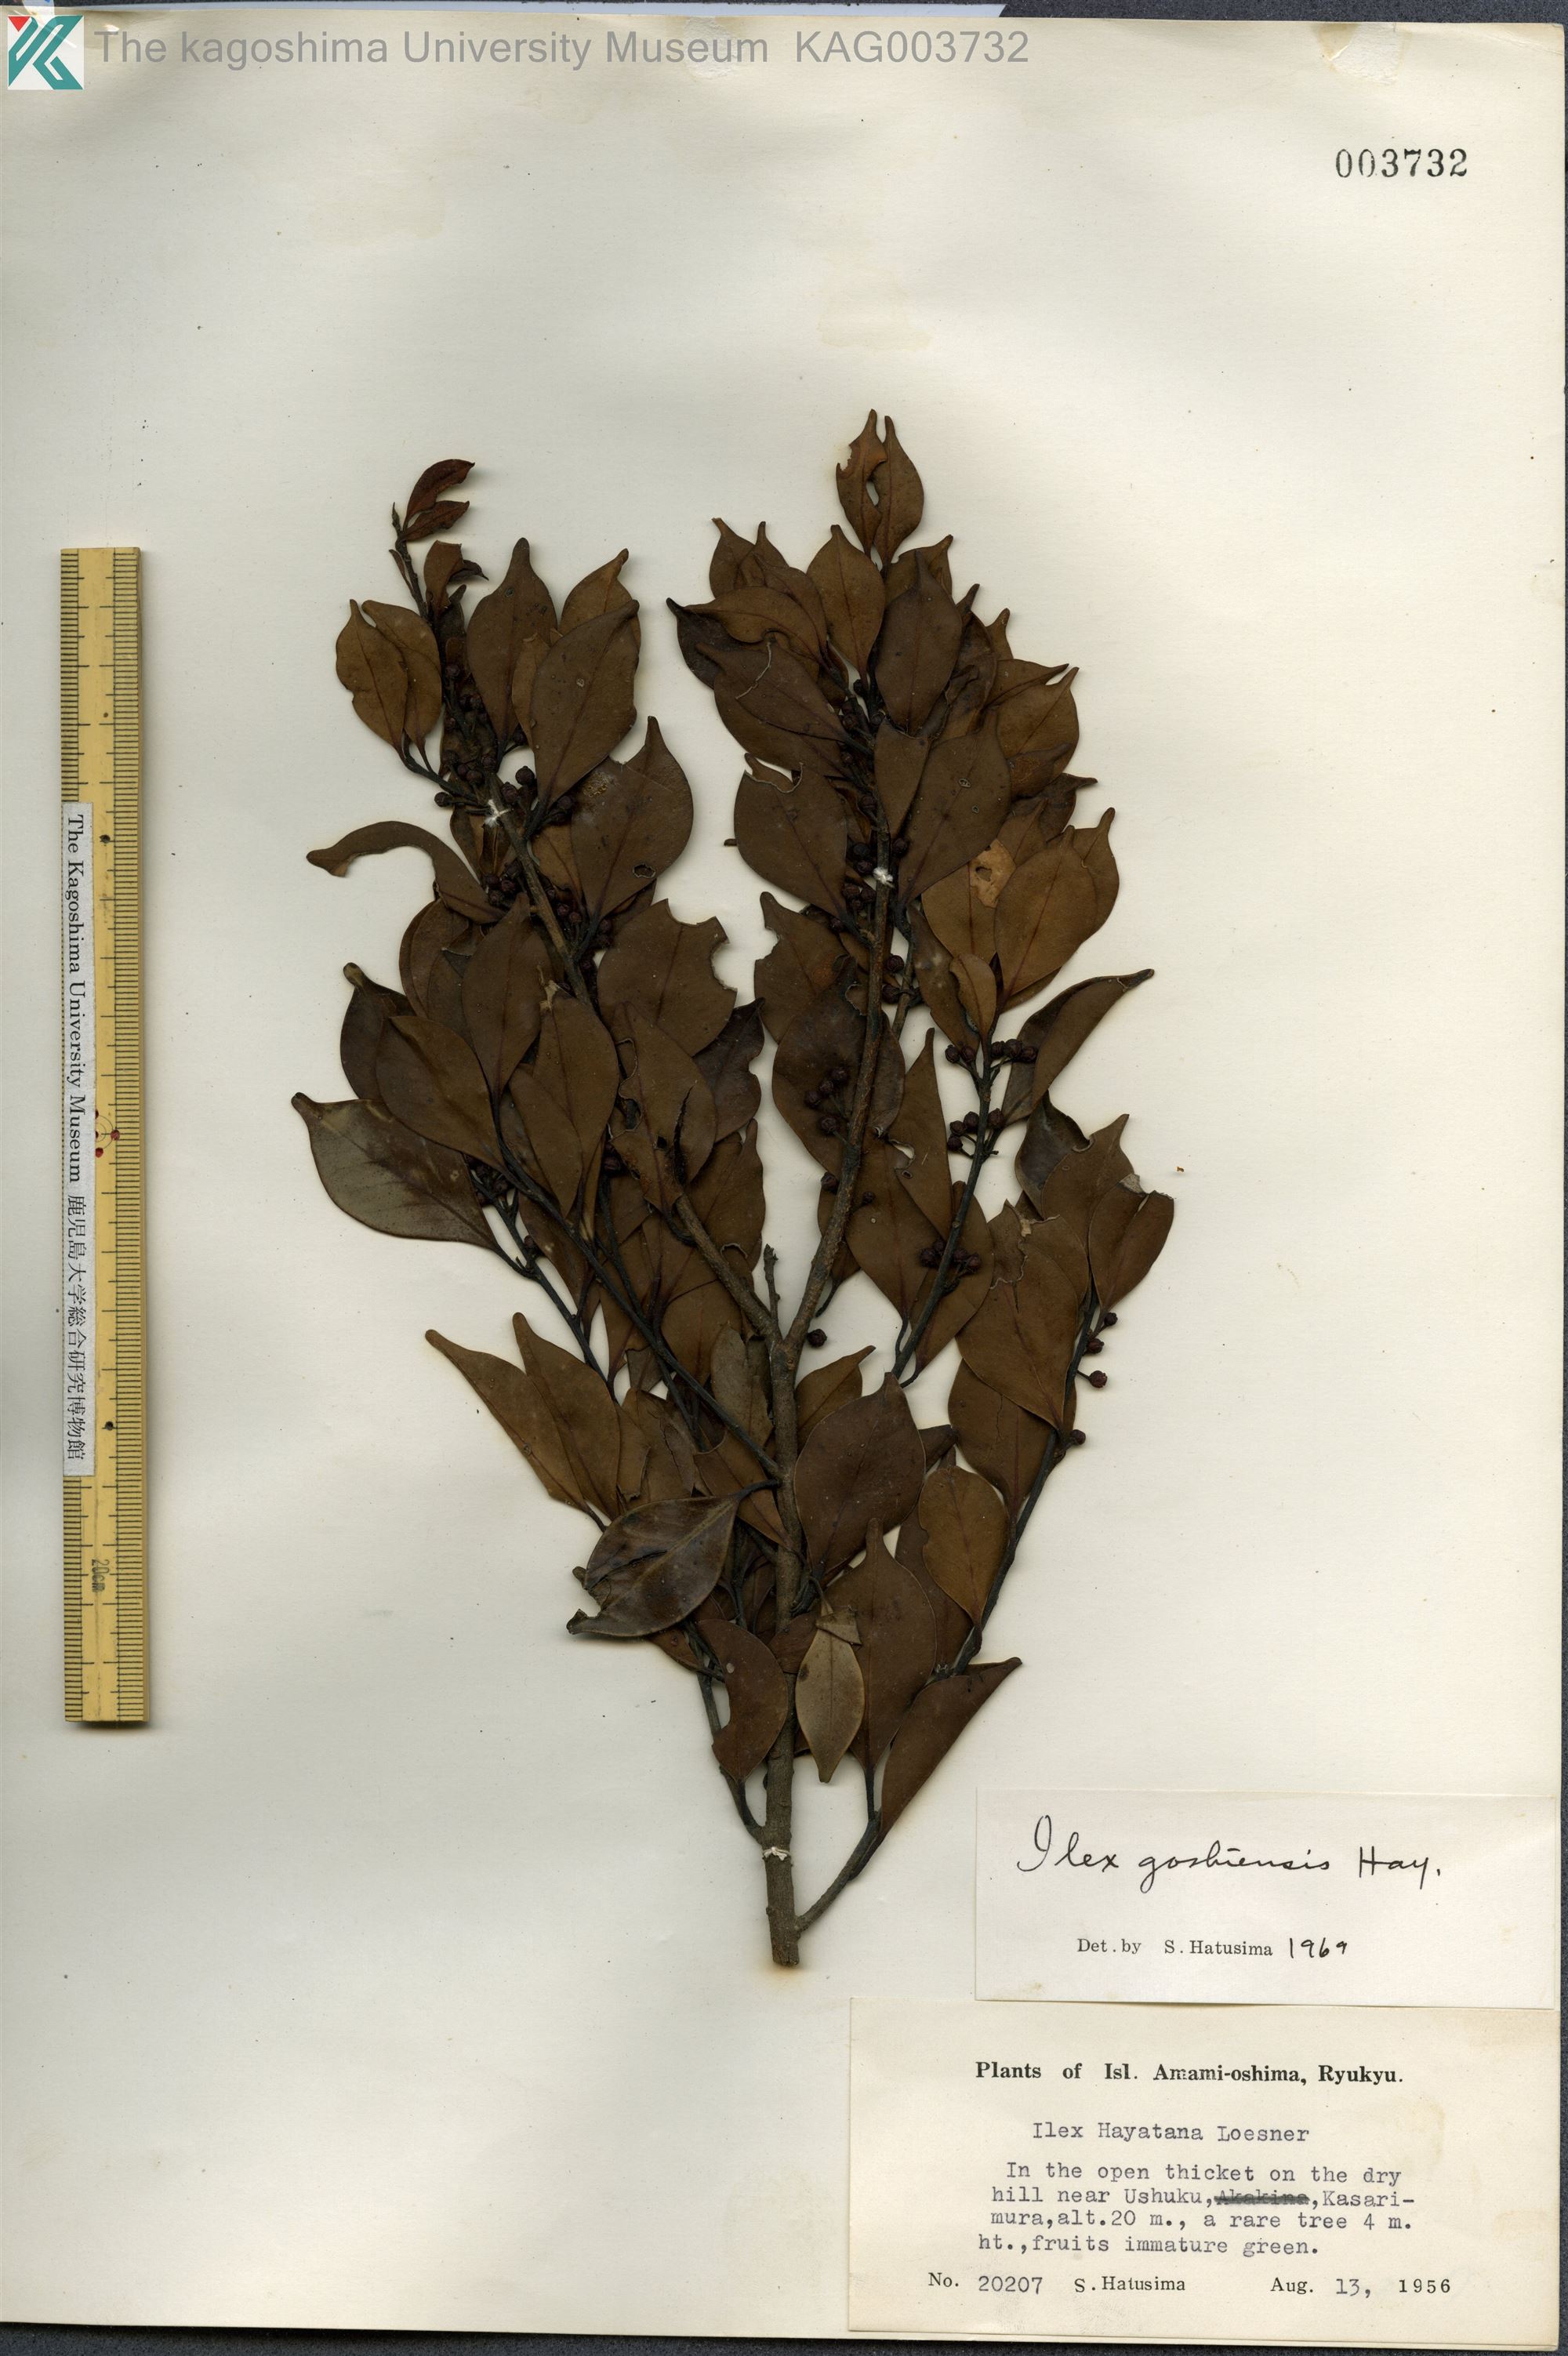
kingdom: Plantae
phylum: Tracheophyta
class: Magnoliopsida
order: Aquifoliales
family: Aquifoliaceae
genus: Ilex
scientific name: Ilex goshiensis
